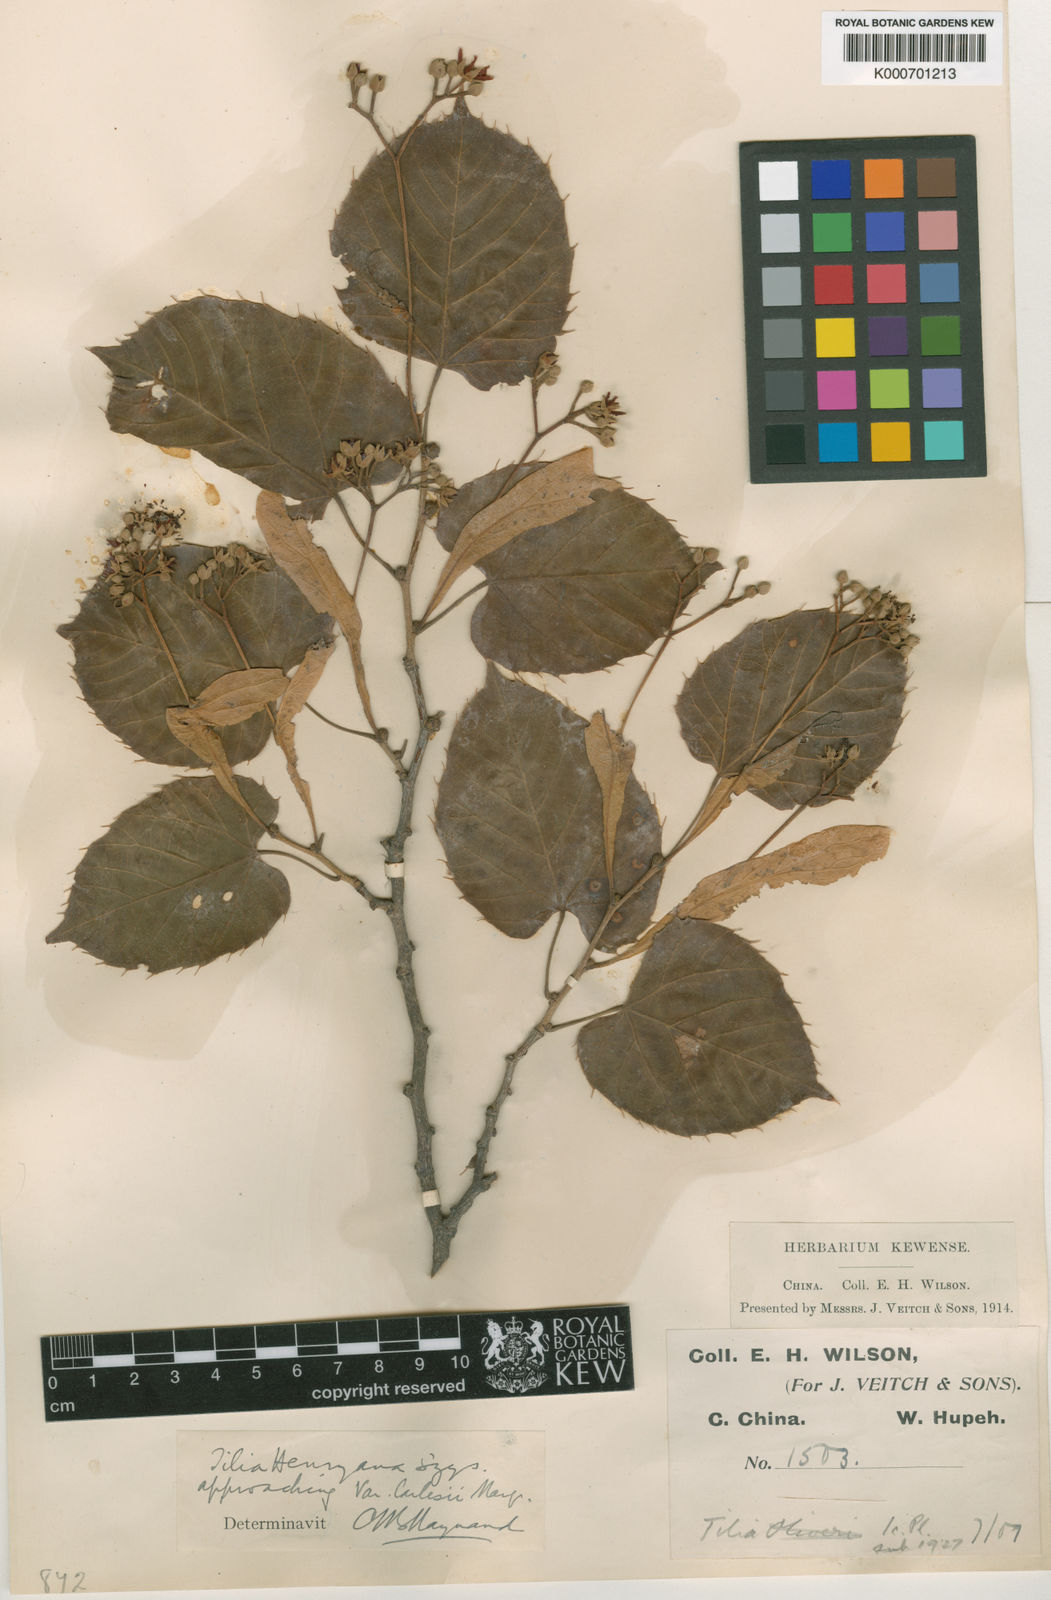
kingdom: Plantae
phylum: Tracheophyta
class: Magnoliopsida
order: Malvales
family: Malvaceae
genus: Tilia
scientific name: Tilia henryana
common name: Henry's lime
